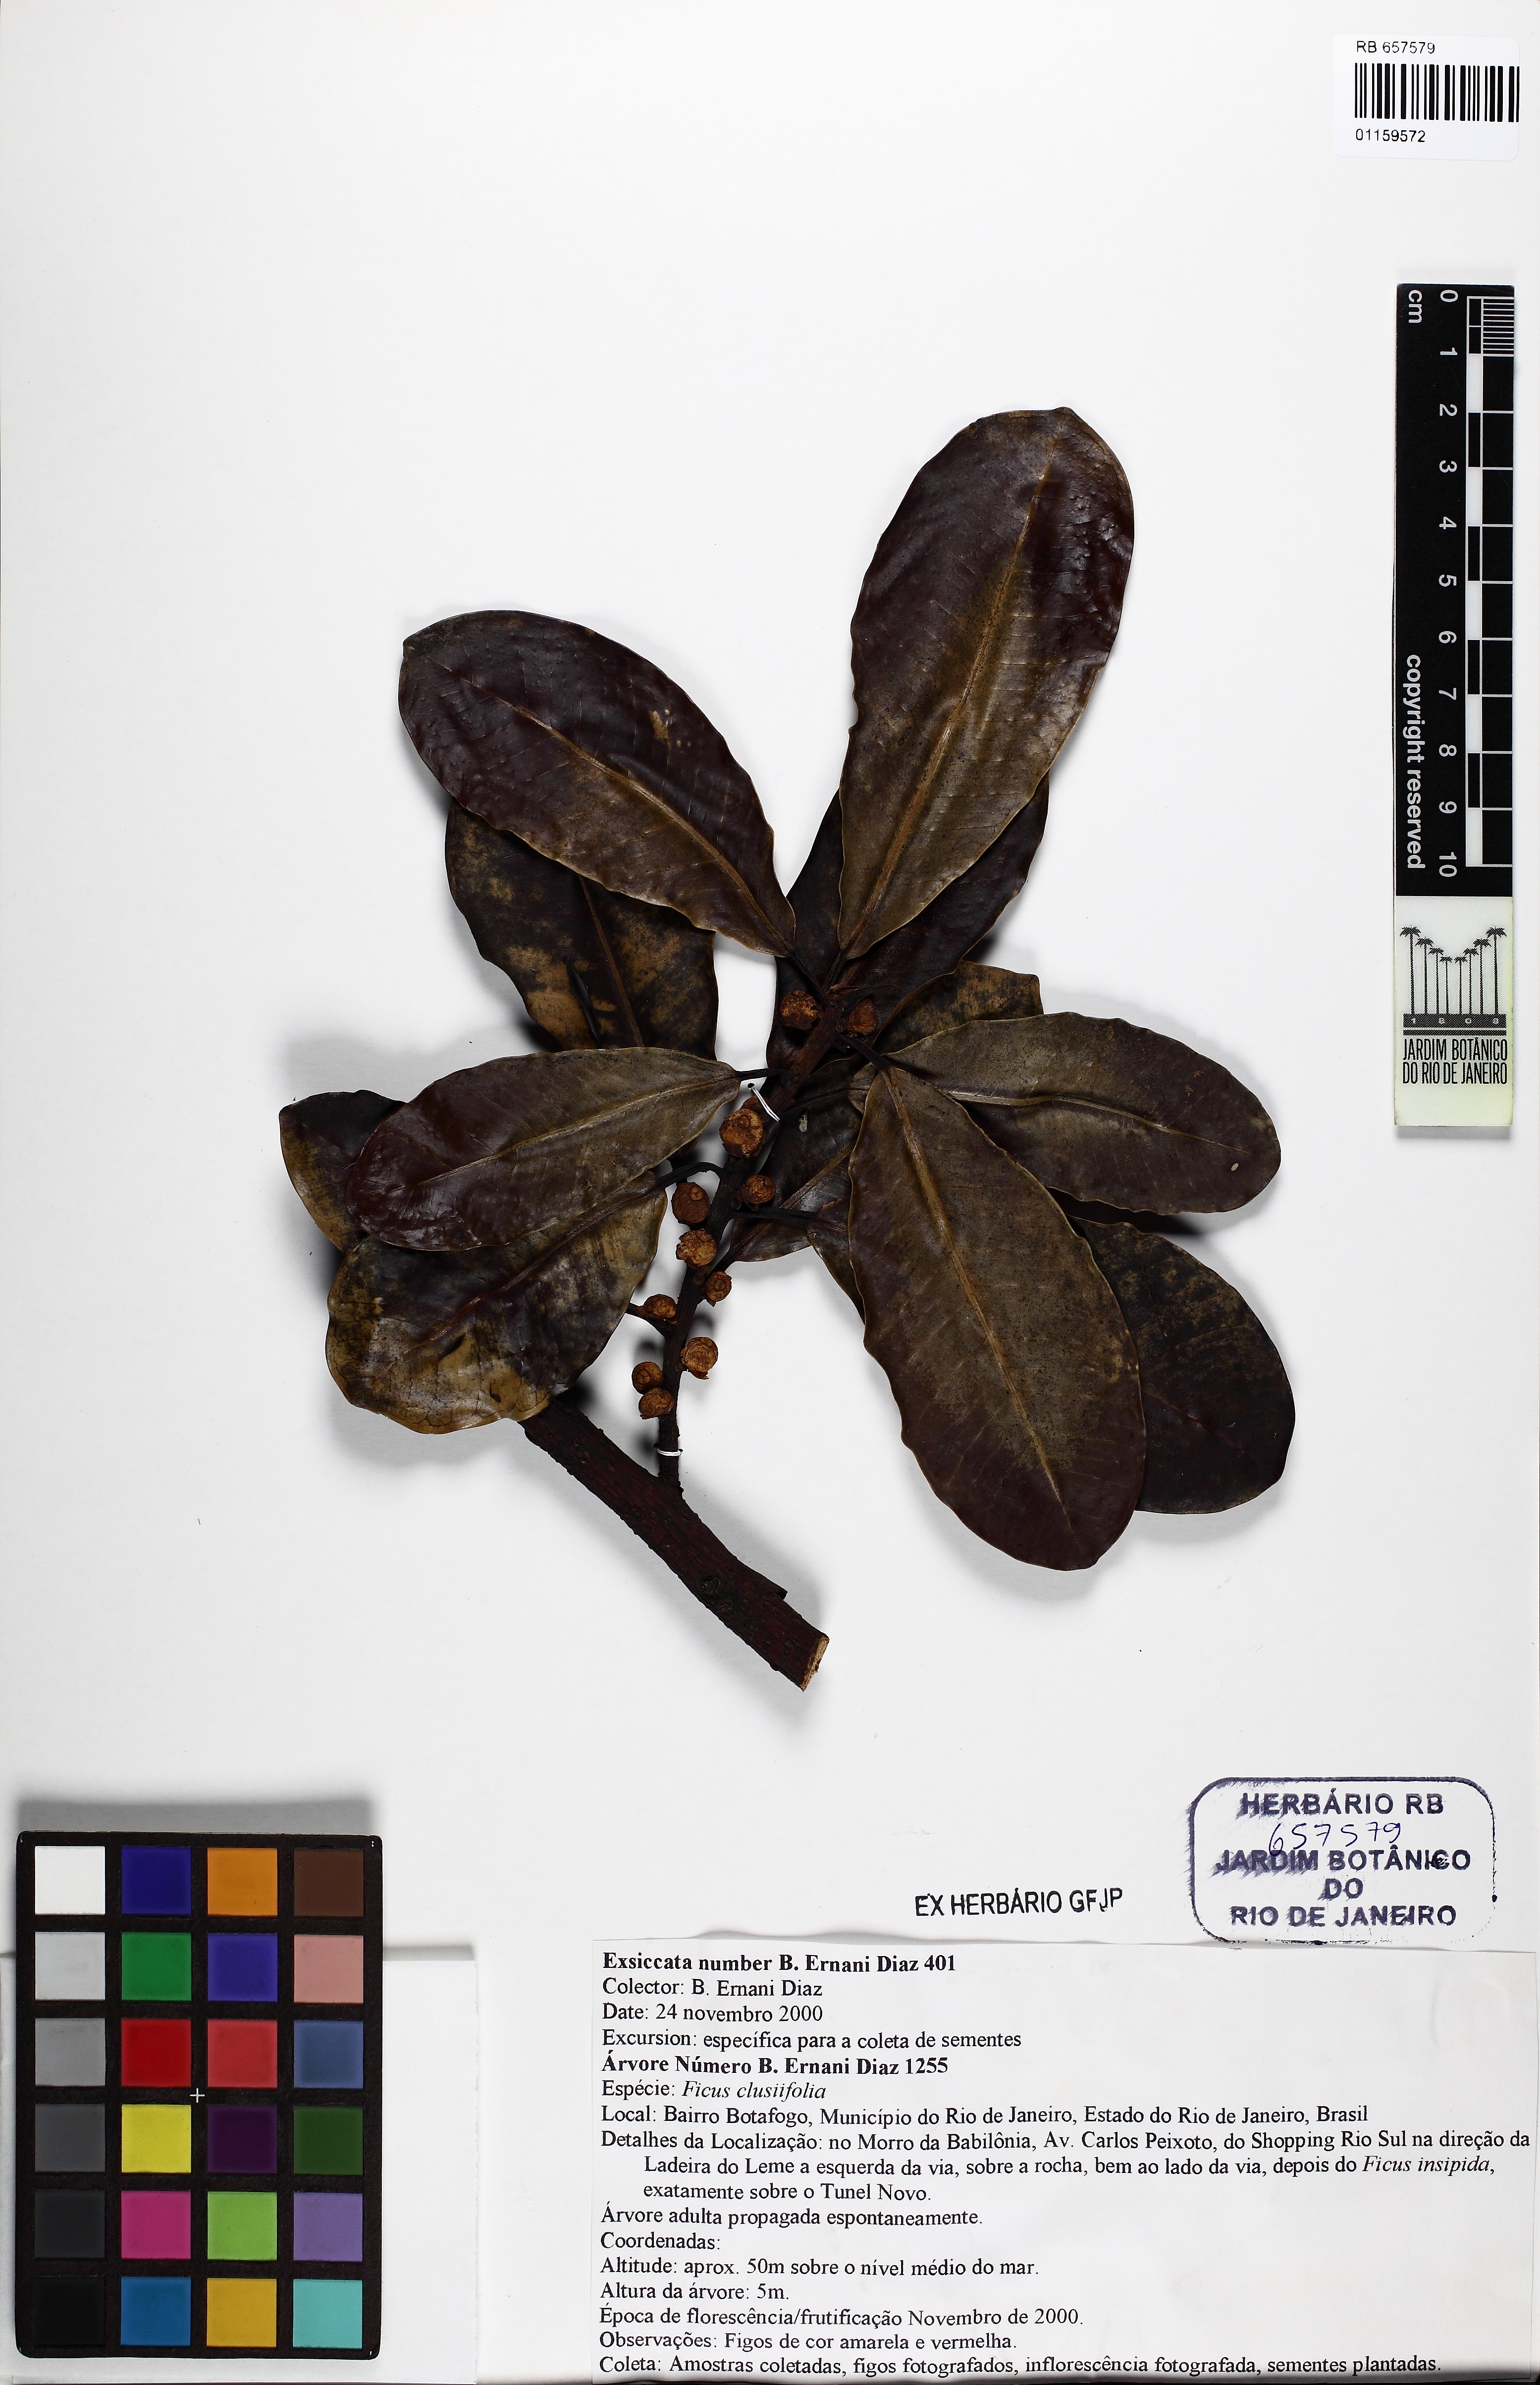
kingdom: Plantae
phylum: Tracheophyta
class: Magnoliopsida
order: Rosales
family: Moraceae
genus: Ficus
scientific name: Ficus americana
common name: Jamaican cherry fig
